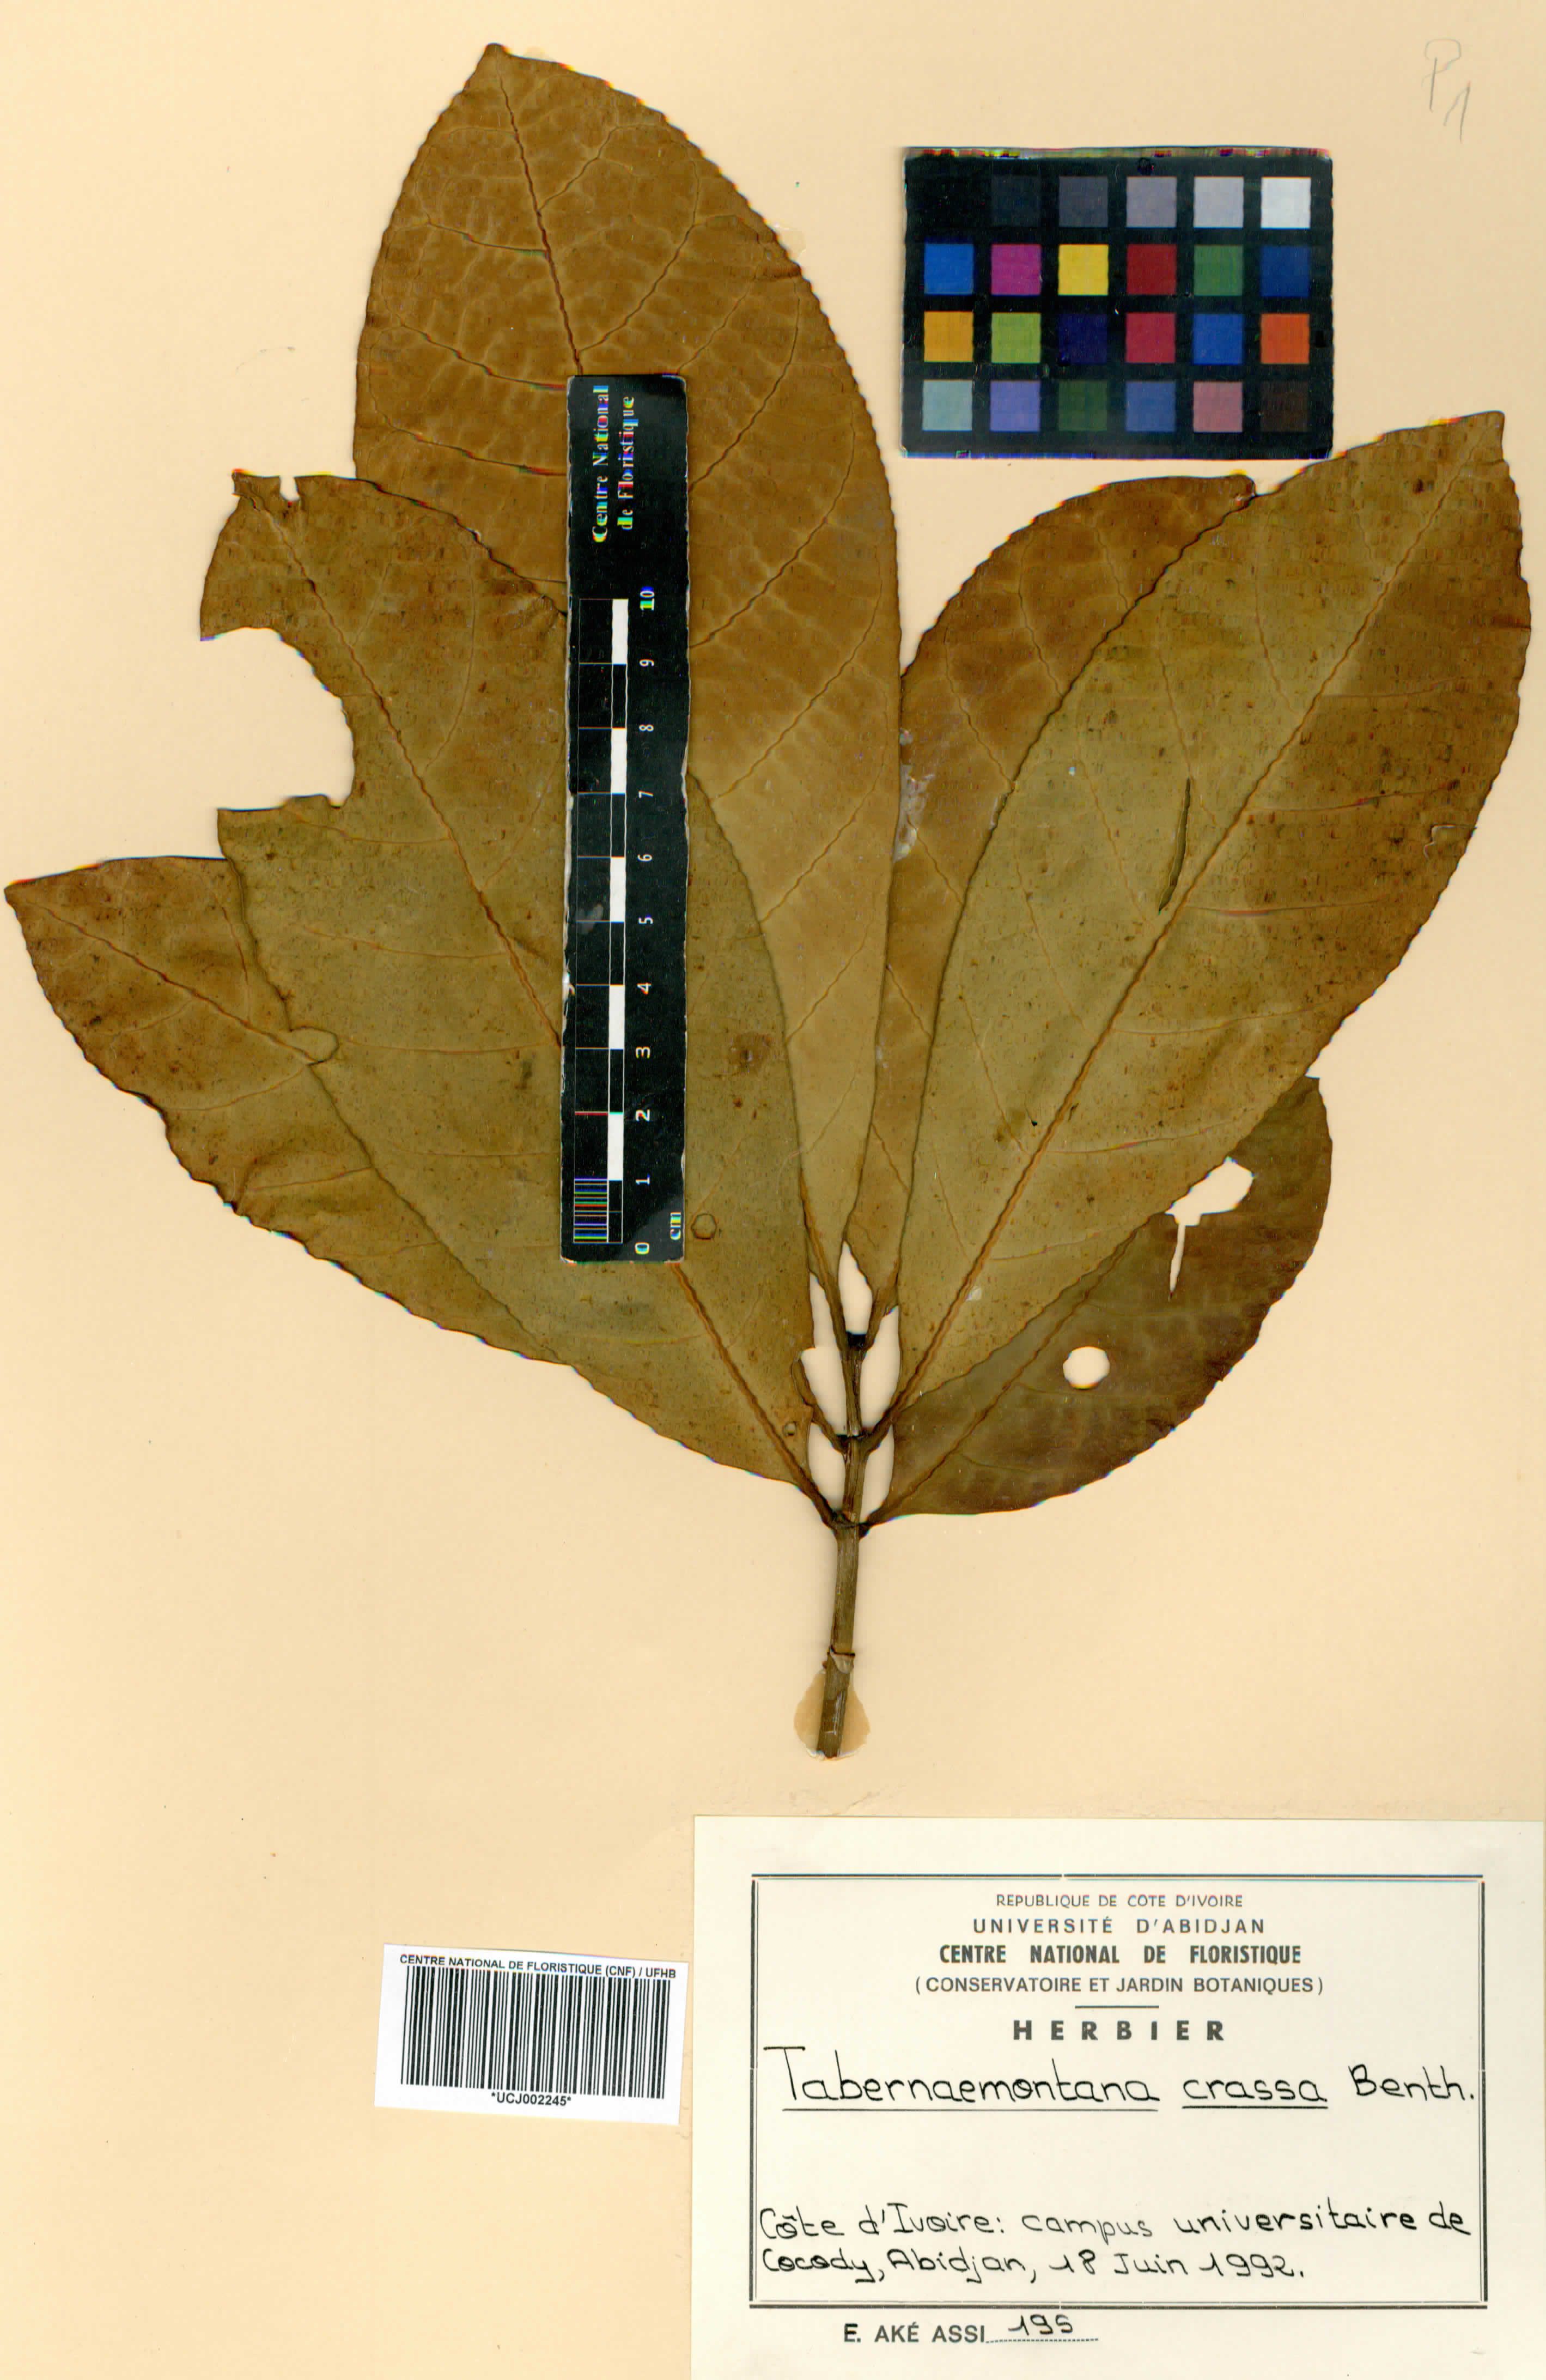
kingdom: Plantae
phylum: Tracheophyta
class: Magnoliopsida
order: Gentianales
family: Apocynaceae
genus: Tabernaemontana
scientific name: Tabernaemontana crassa
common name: Adam's-apple-flower
